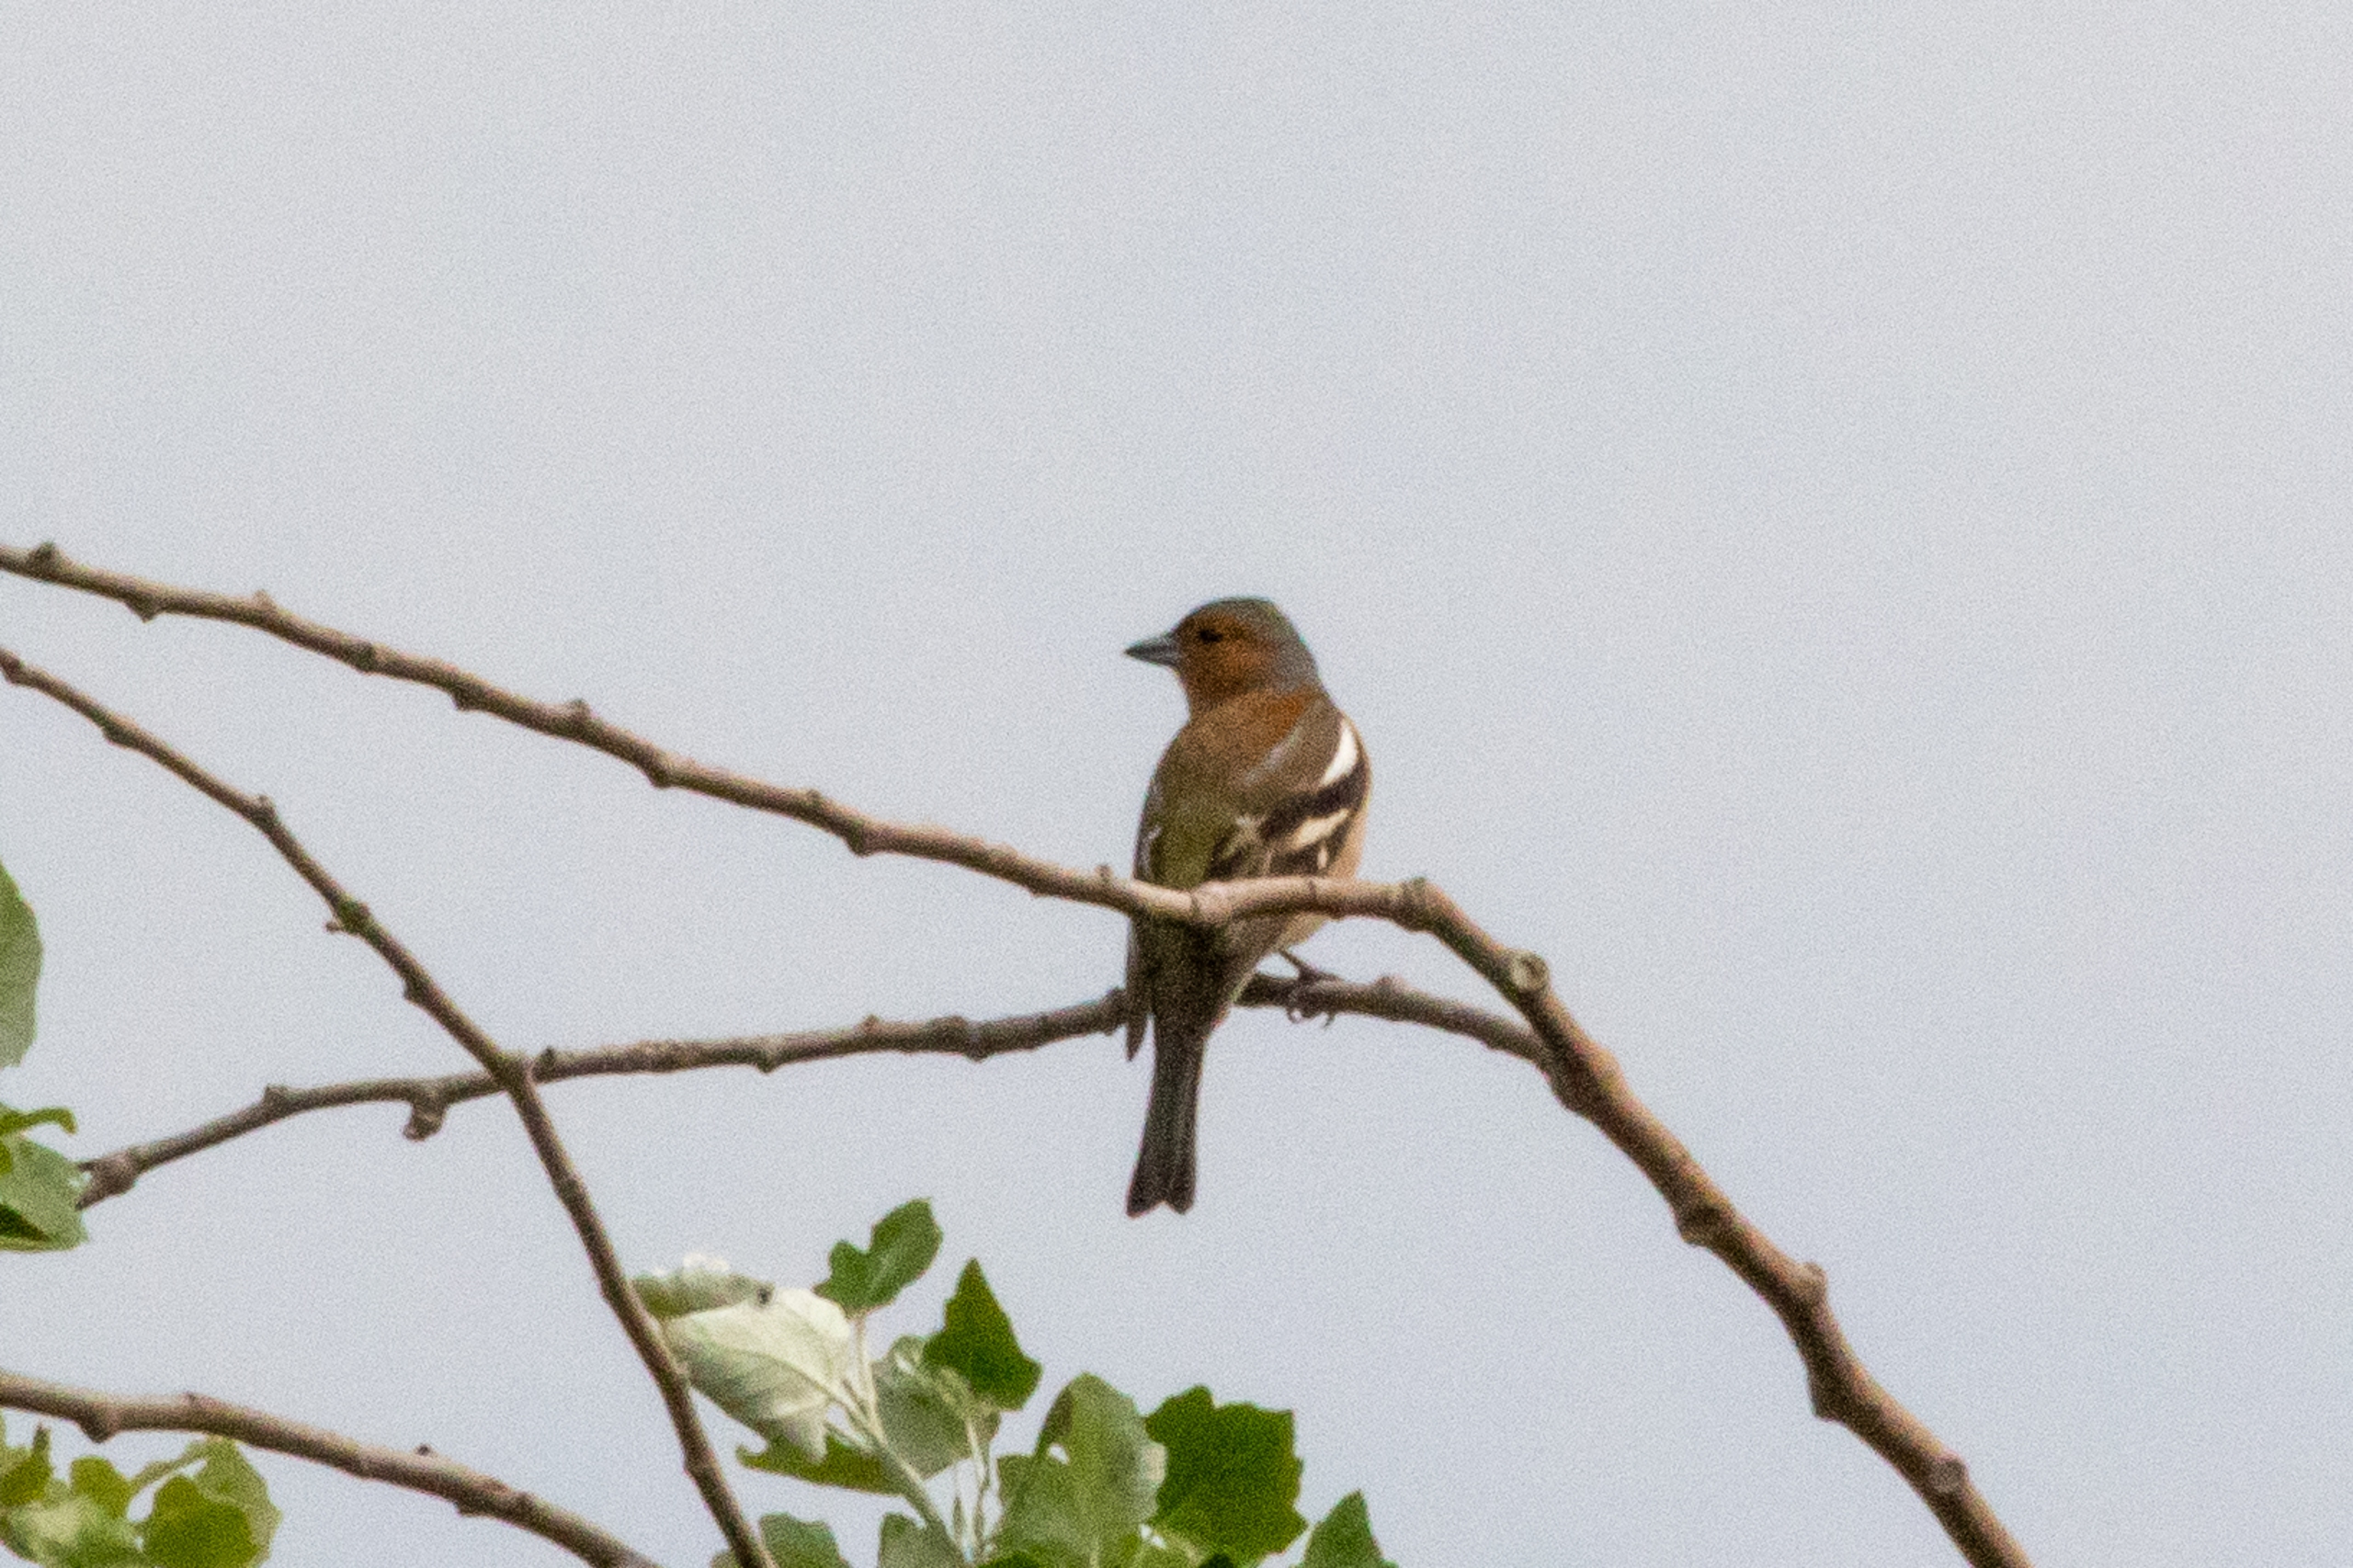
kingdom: Animalia
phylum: Chordata
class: Aves
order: Passeriformes
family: Fringillidae
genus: Fringilla
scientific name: Fringilla coelebs
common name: Bogfinke
